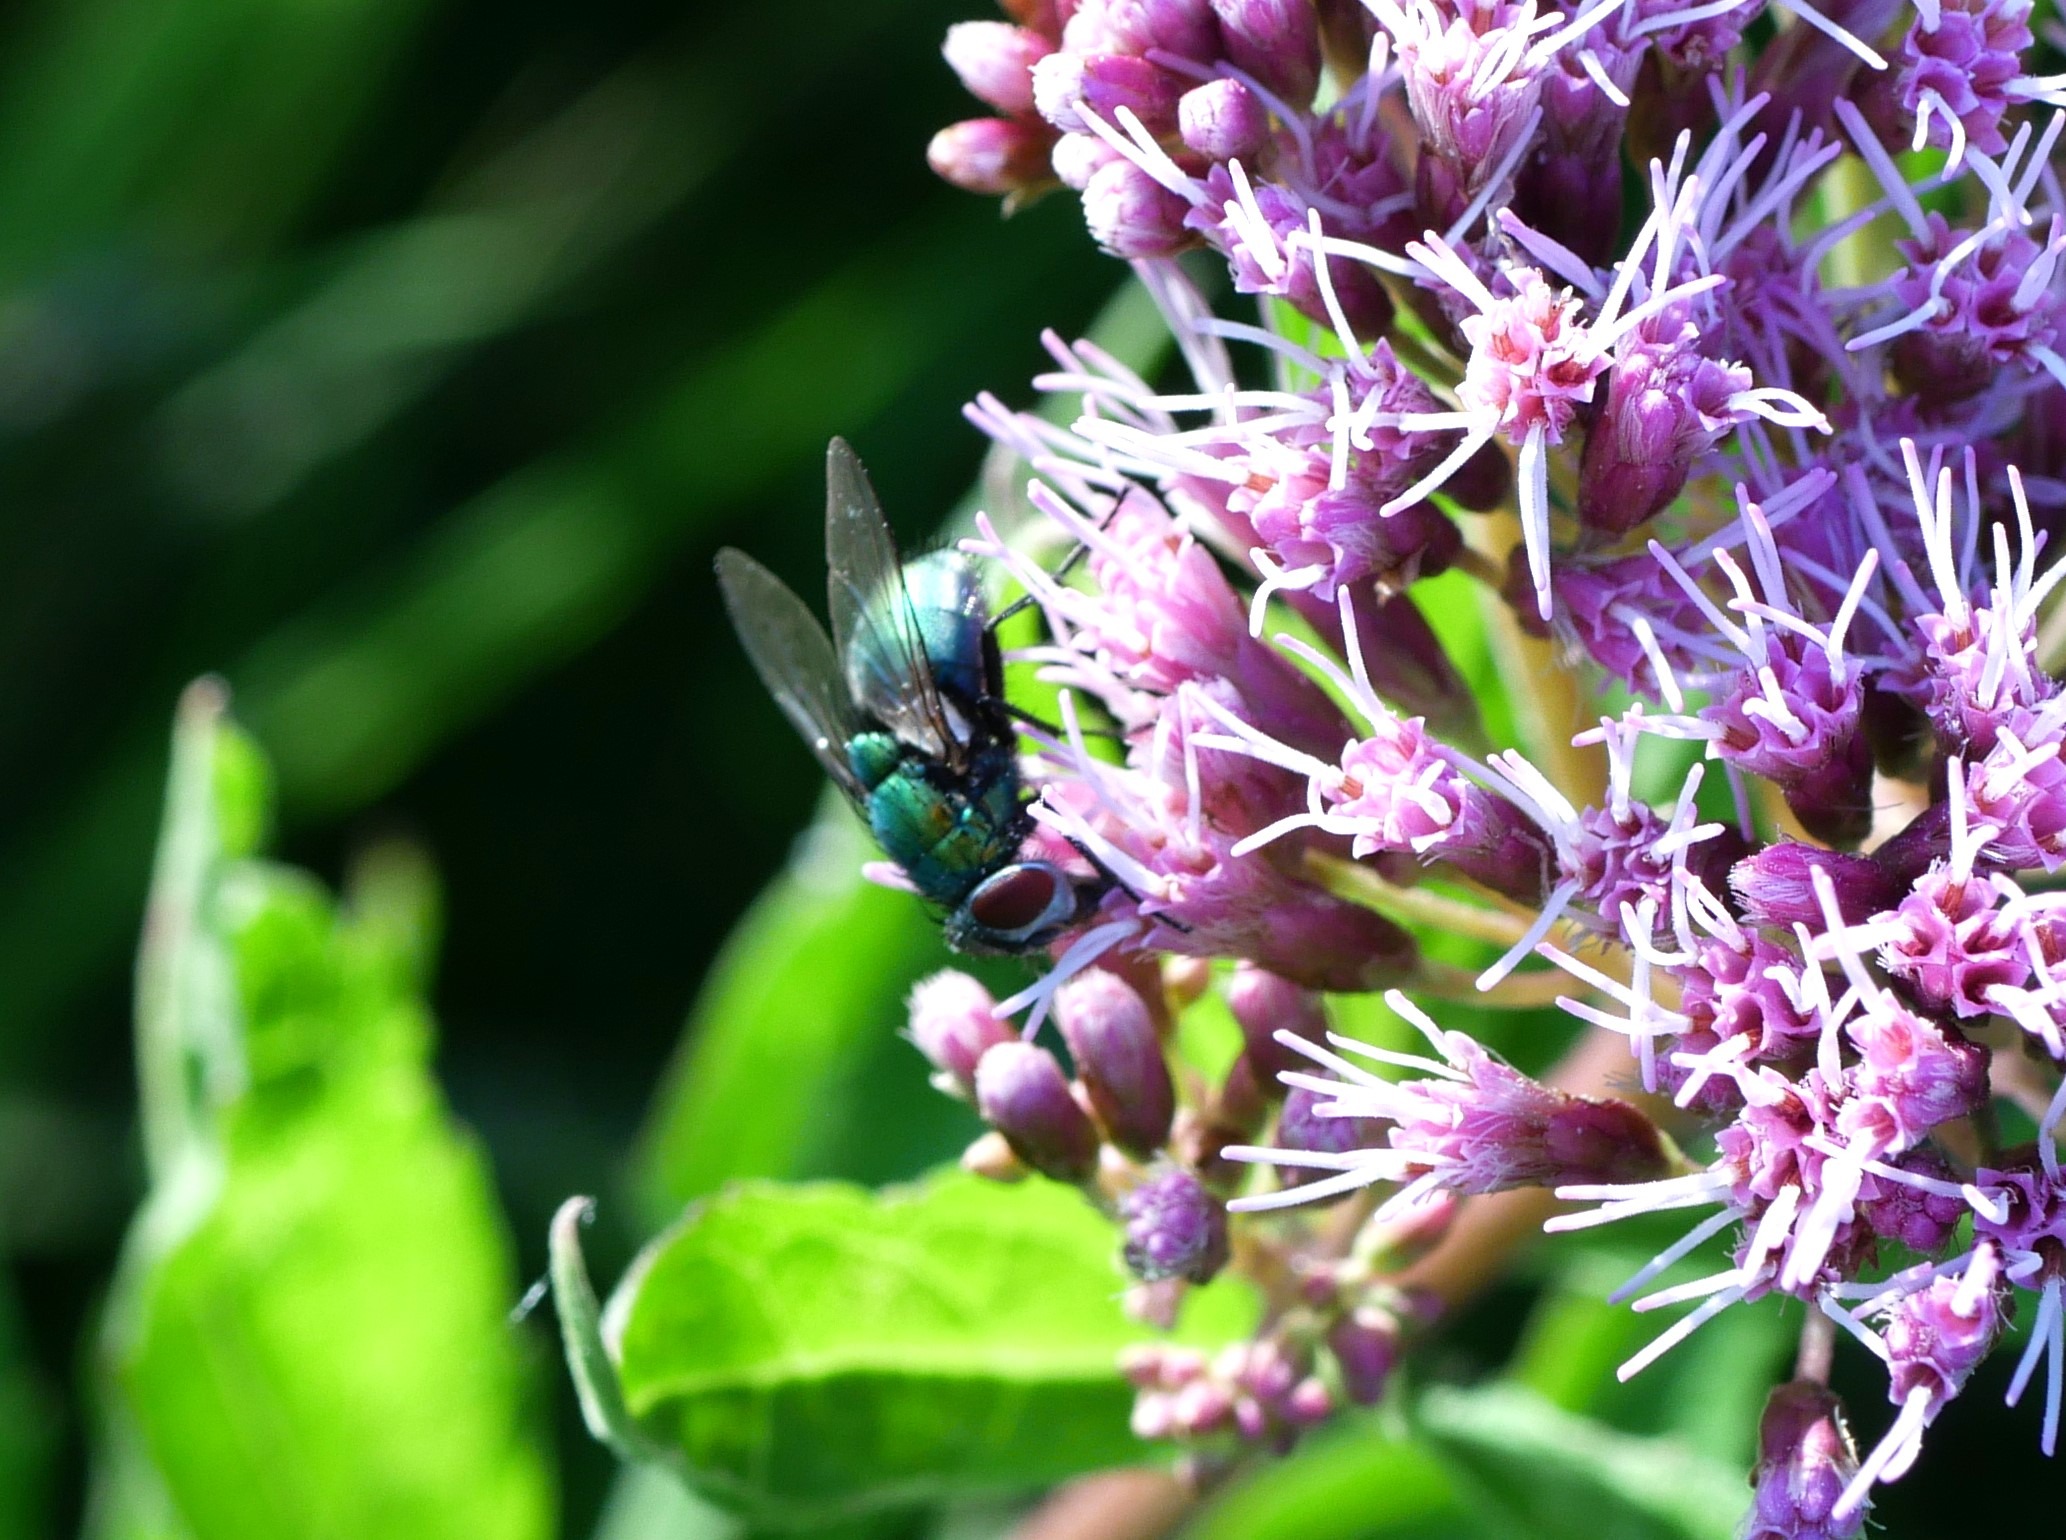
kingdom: Animalia
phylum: Arthropoda
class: Insecta
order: Diptera
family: Calliphoridae
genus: Lucilia
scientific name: Lucilia
